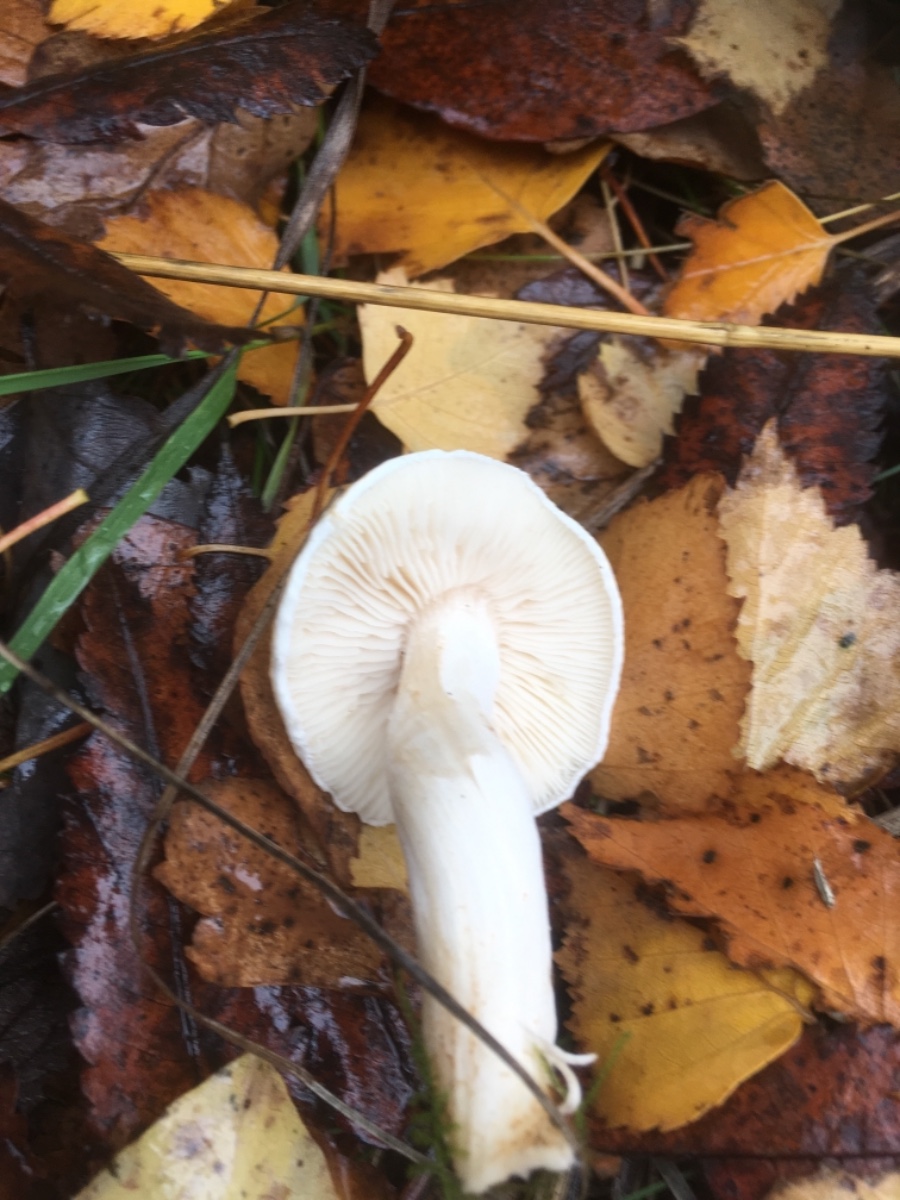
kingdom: Fungi
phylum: Basidiomycota
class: Agaricomycetes
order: Agaricales
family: Tricholomataceae
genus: Tricholoma
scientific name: Tricholoma
